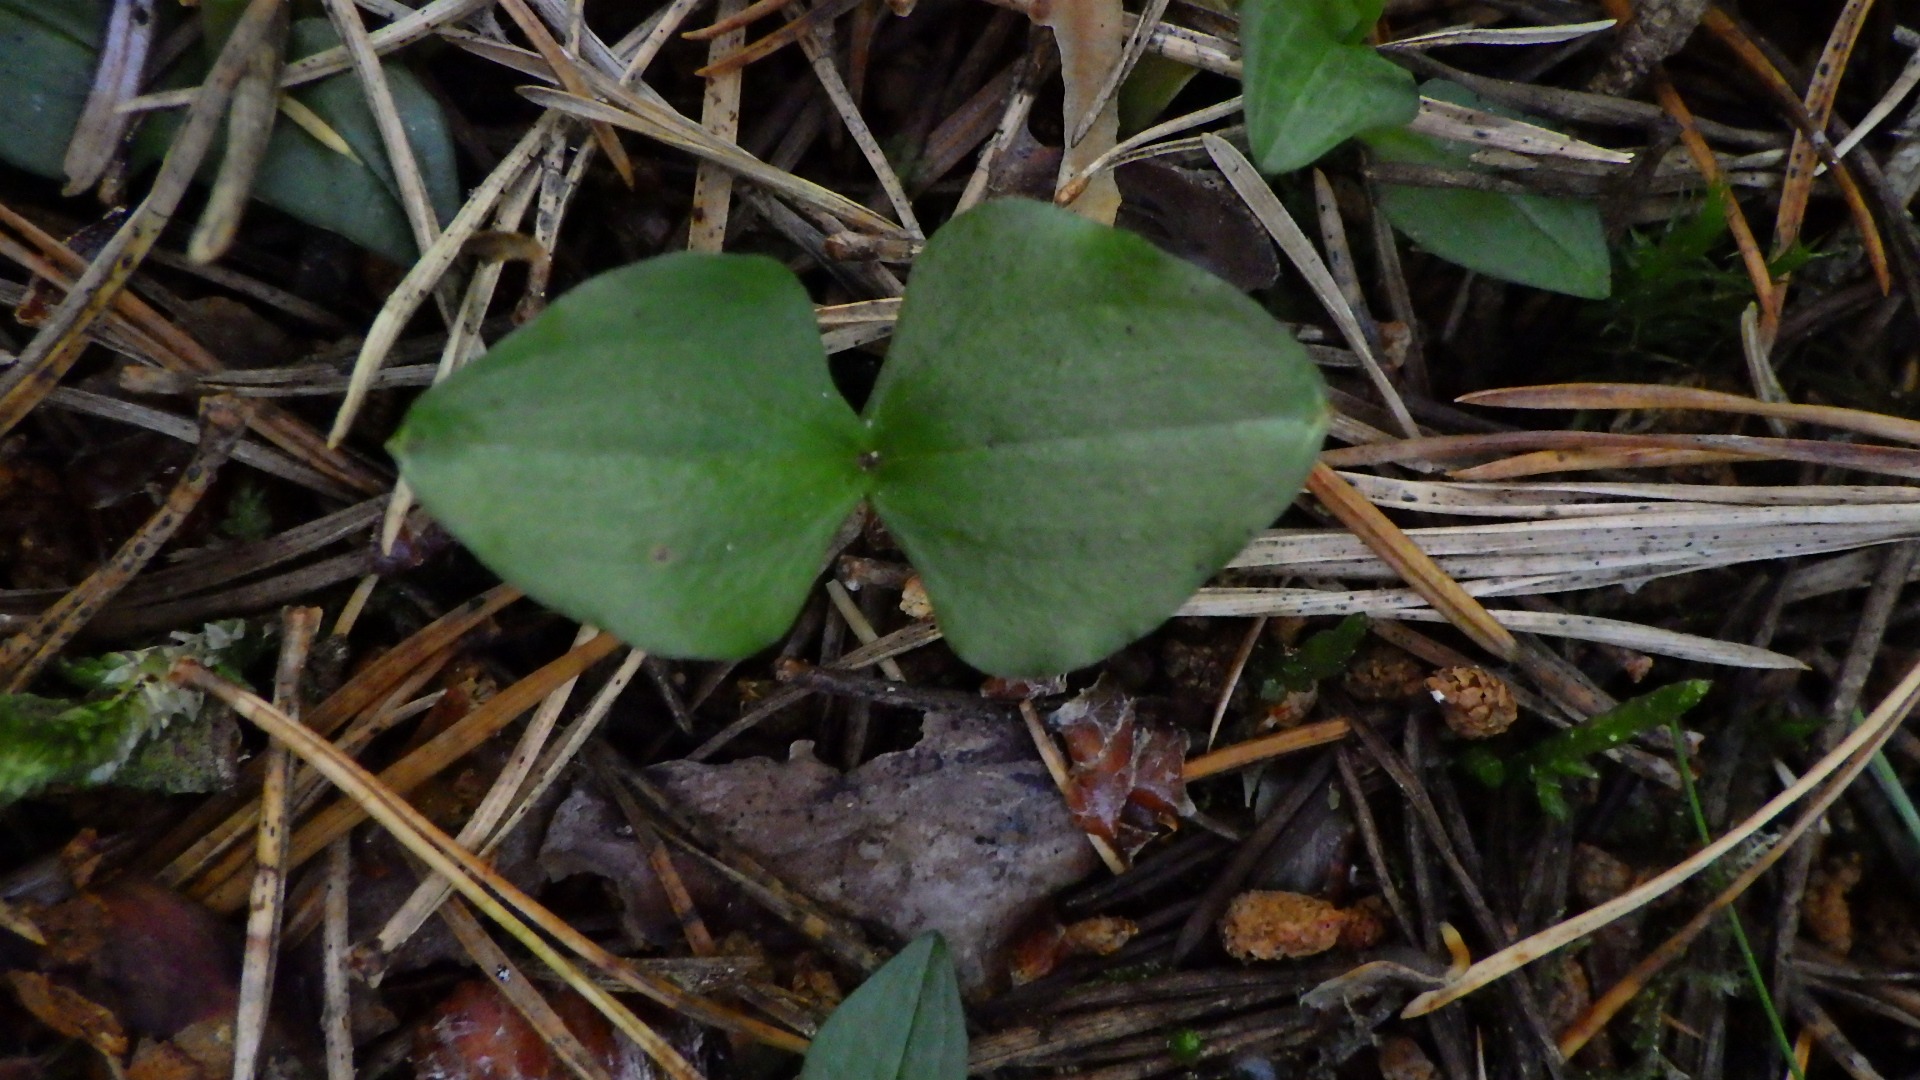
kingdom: Plantae
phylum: Tracheophyta
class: Liliopsida
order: Asparagales
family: Orchidaceae
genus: Neottia
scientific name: Neottia cordata
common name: Hjertebladet fliglæbe
